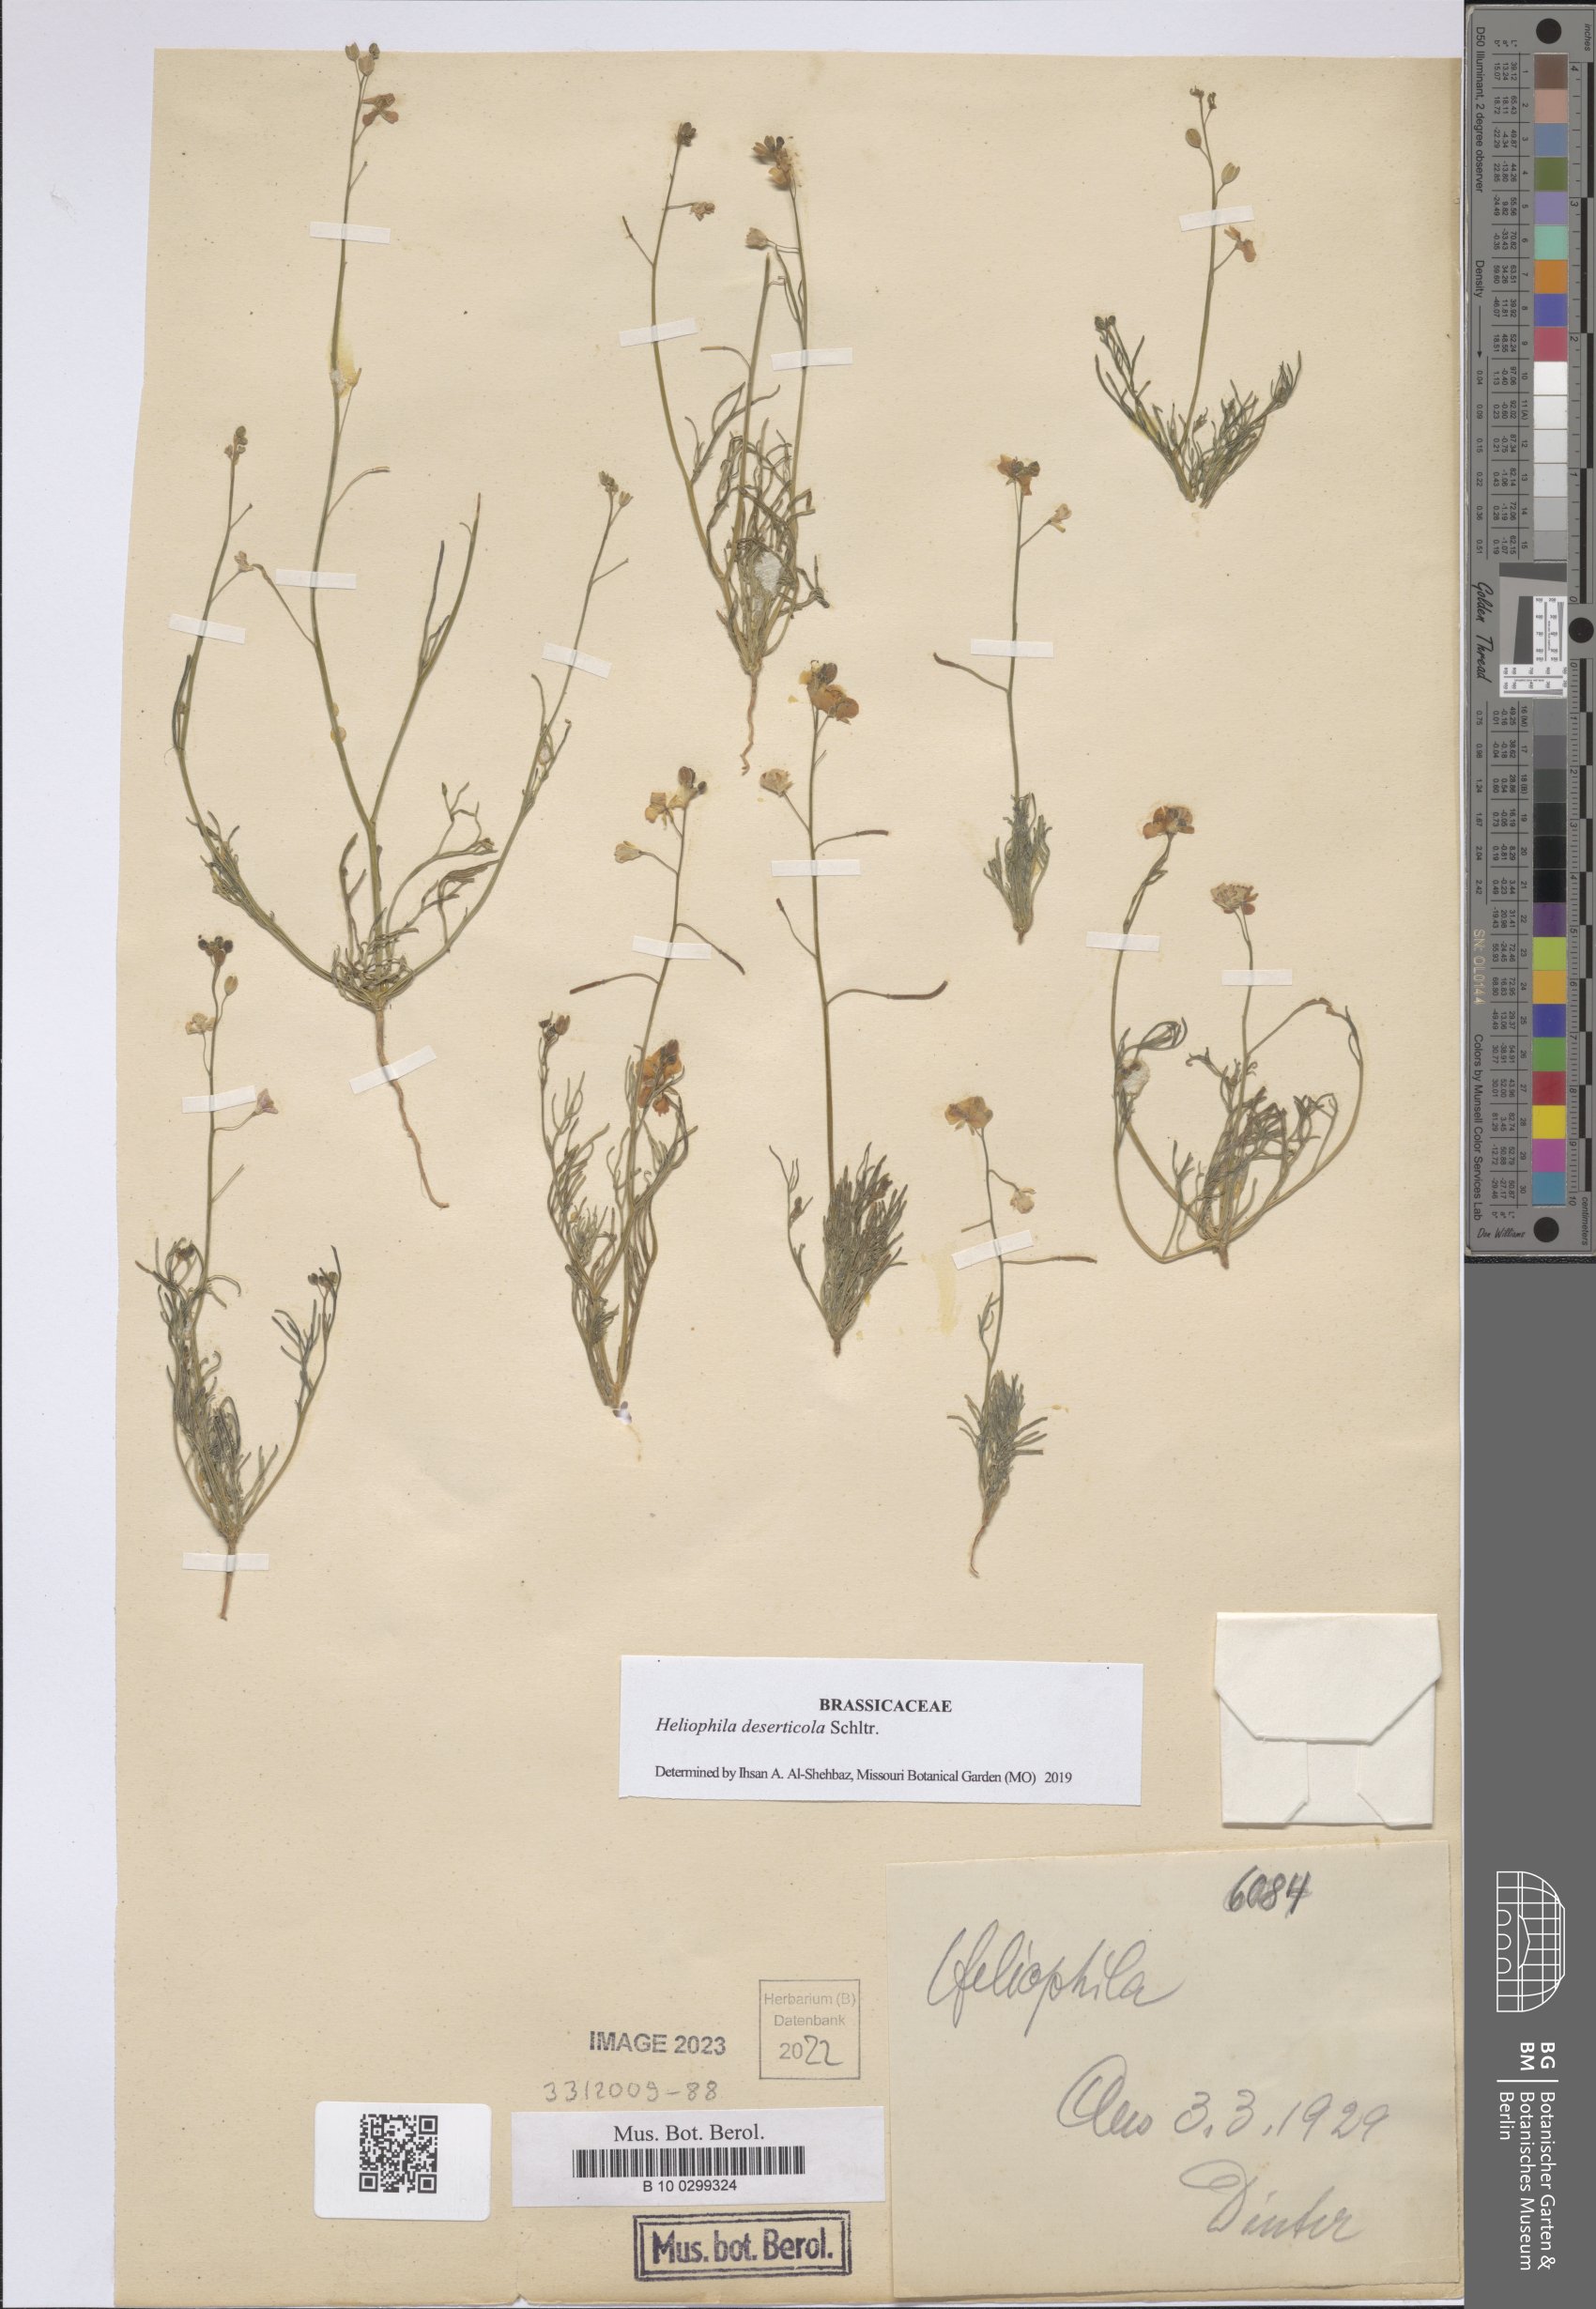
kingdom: Plantae
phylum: Tracheophyta
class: Magnoliopsida
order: Brassicales
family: Brassicaceae
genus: Heliophila
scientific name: Heliophila deserticola
